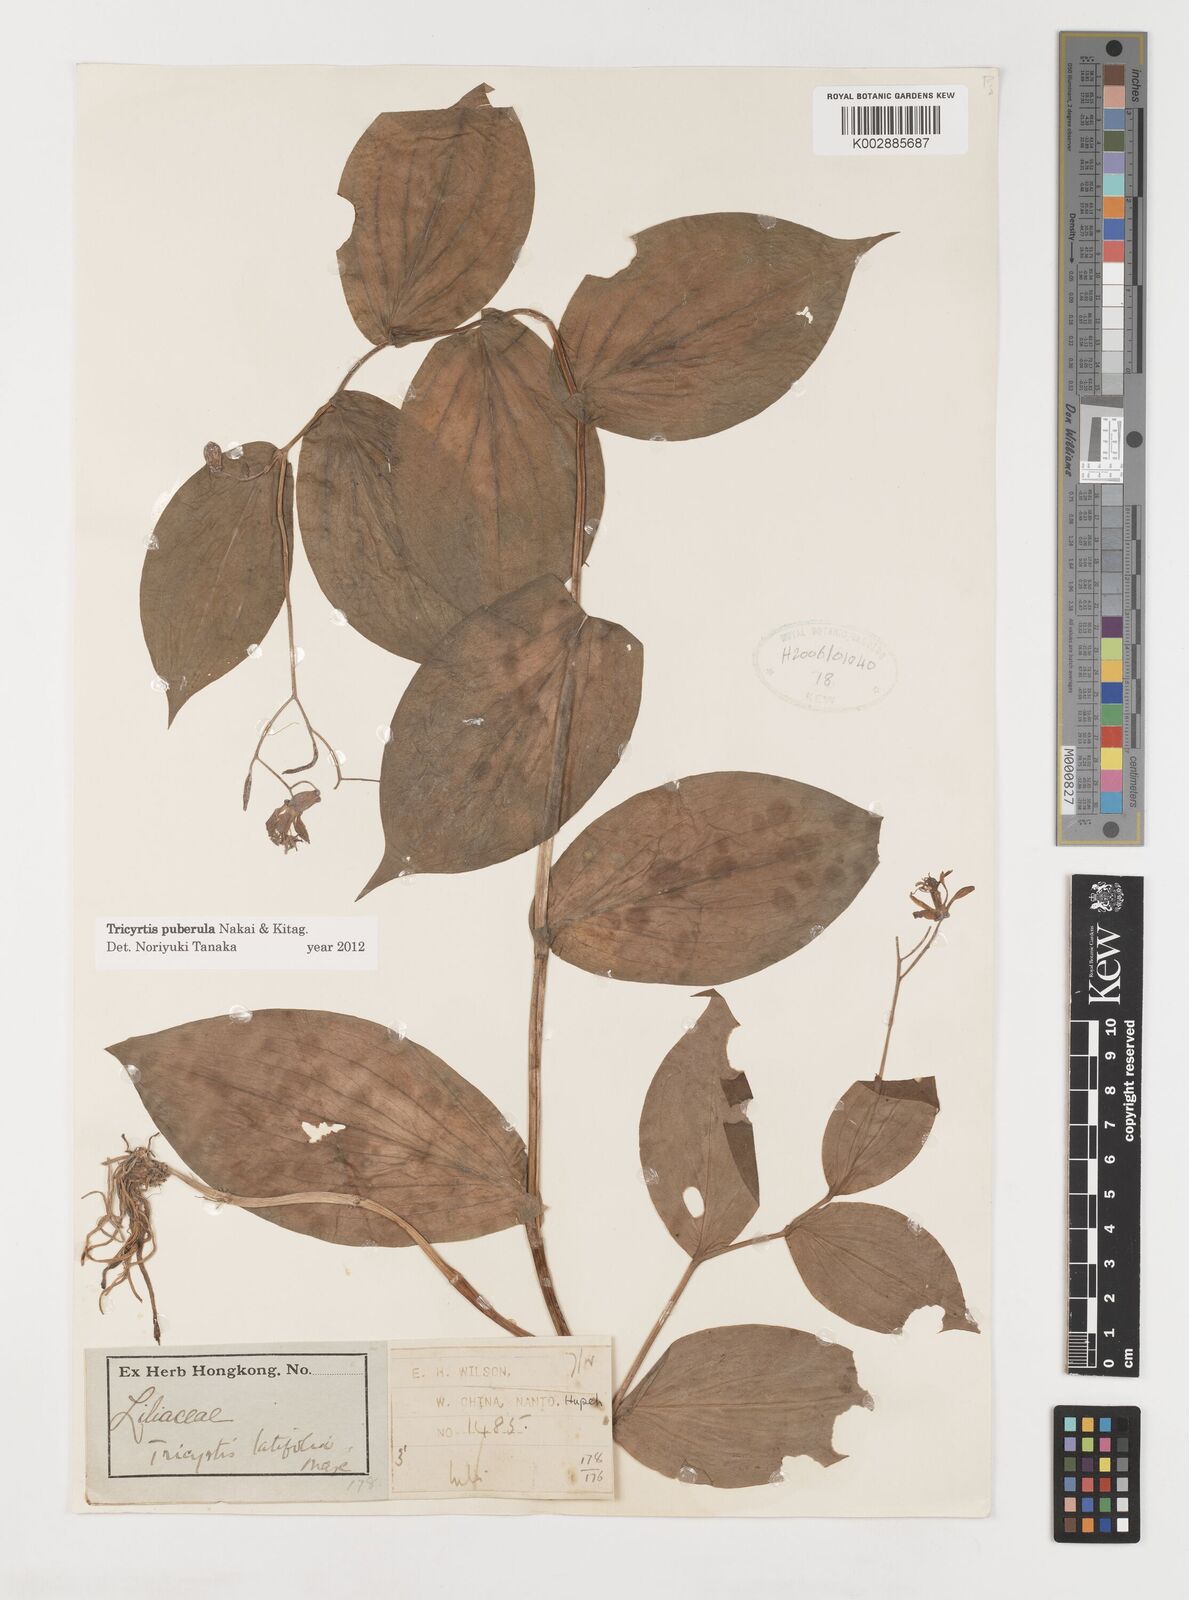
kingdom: Plantae
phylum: Tracheophyta
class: Liliopsida
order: Liliales
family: Liliaceae
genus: Tricyrtis
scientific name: Tricyrtis puberula
